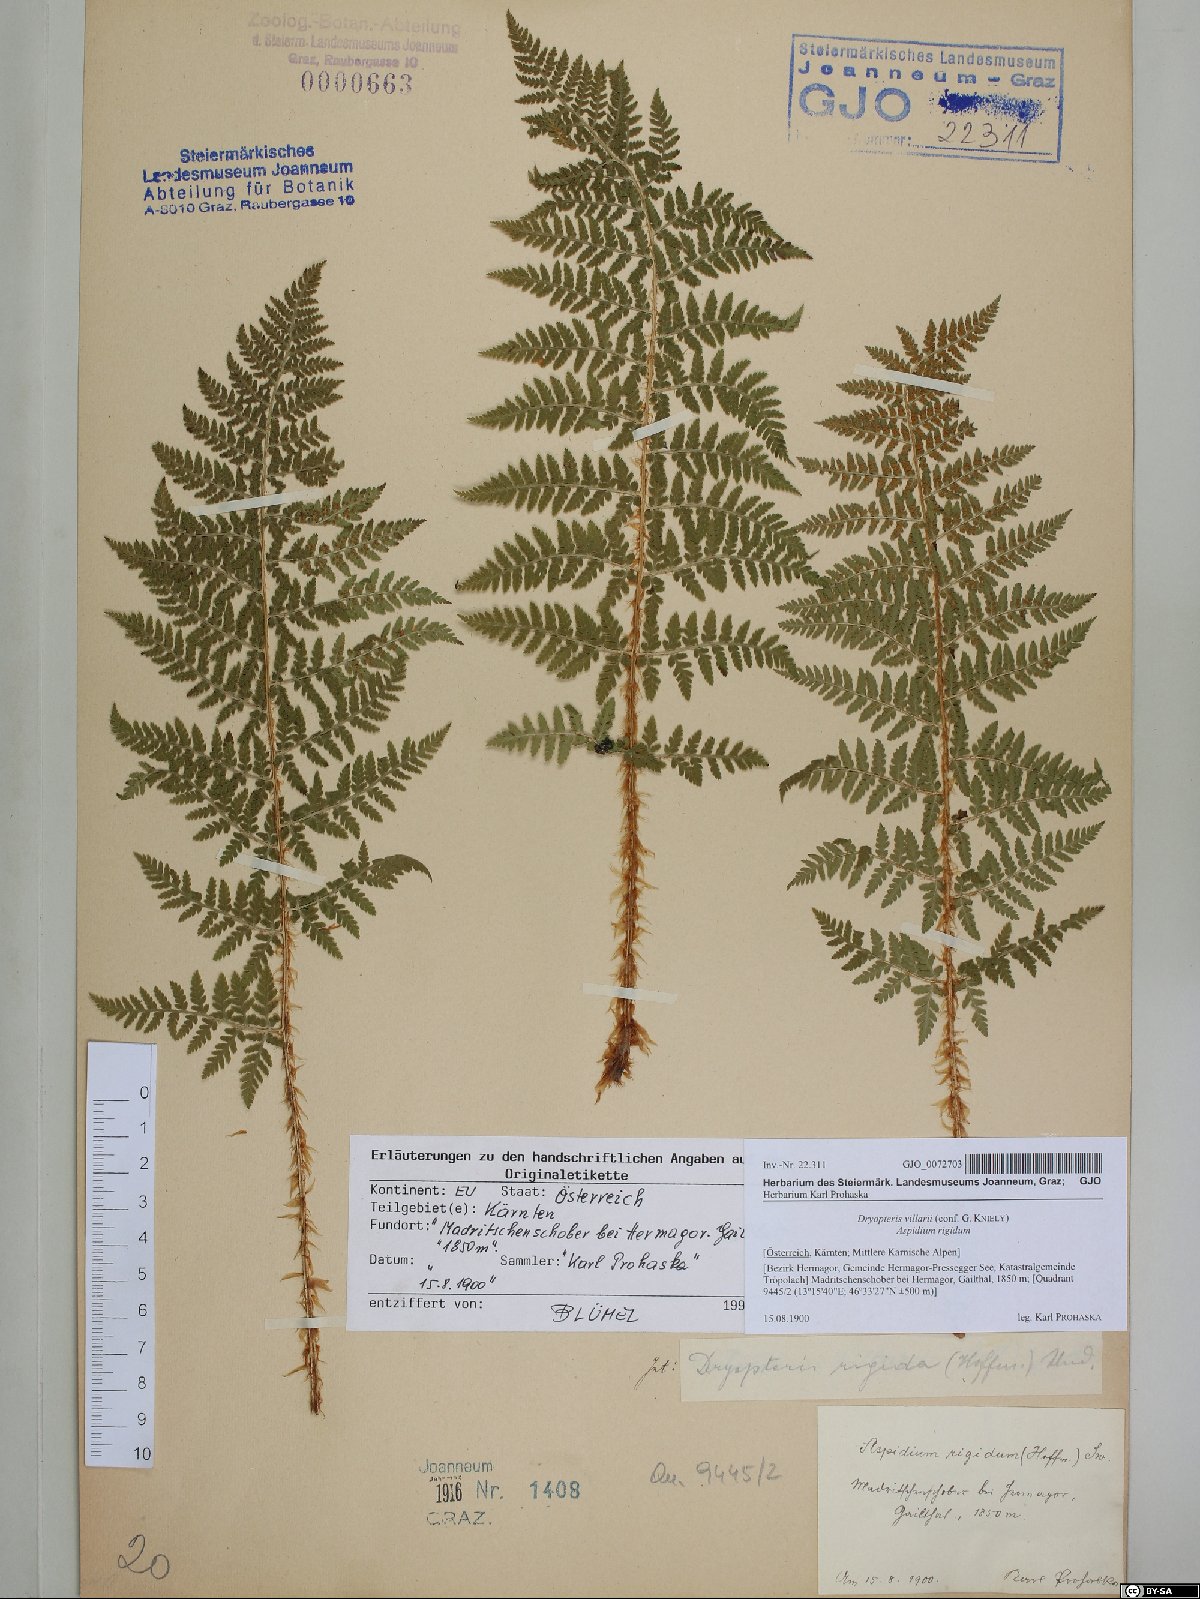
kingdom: Plantae
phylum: Tracheophyta
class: Polypodiopsida
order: Polypodiales
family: Dryopteridaceae
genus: Dryopteris
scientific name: Dryopteris villarii
